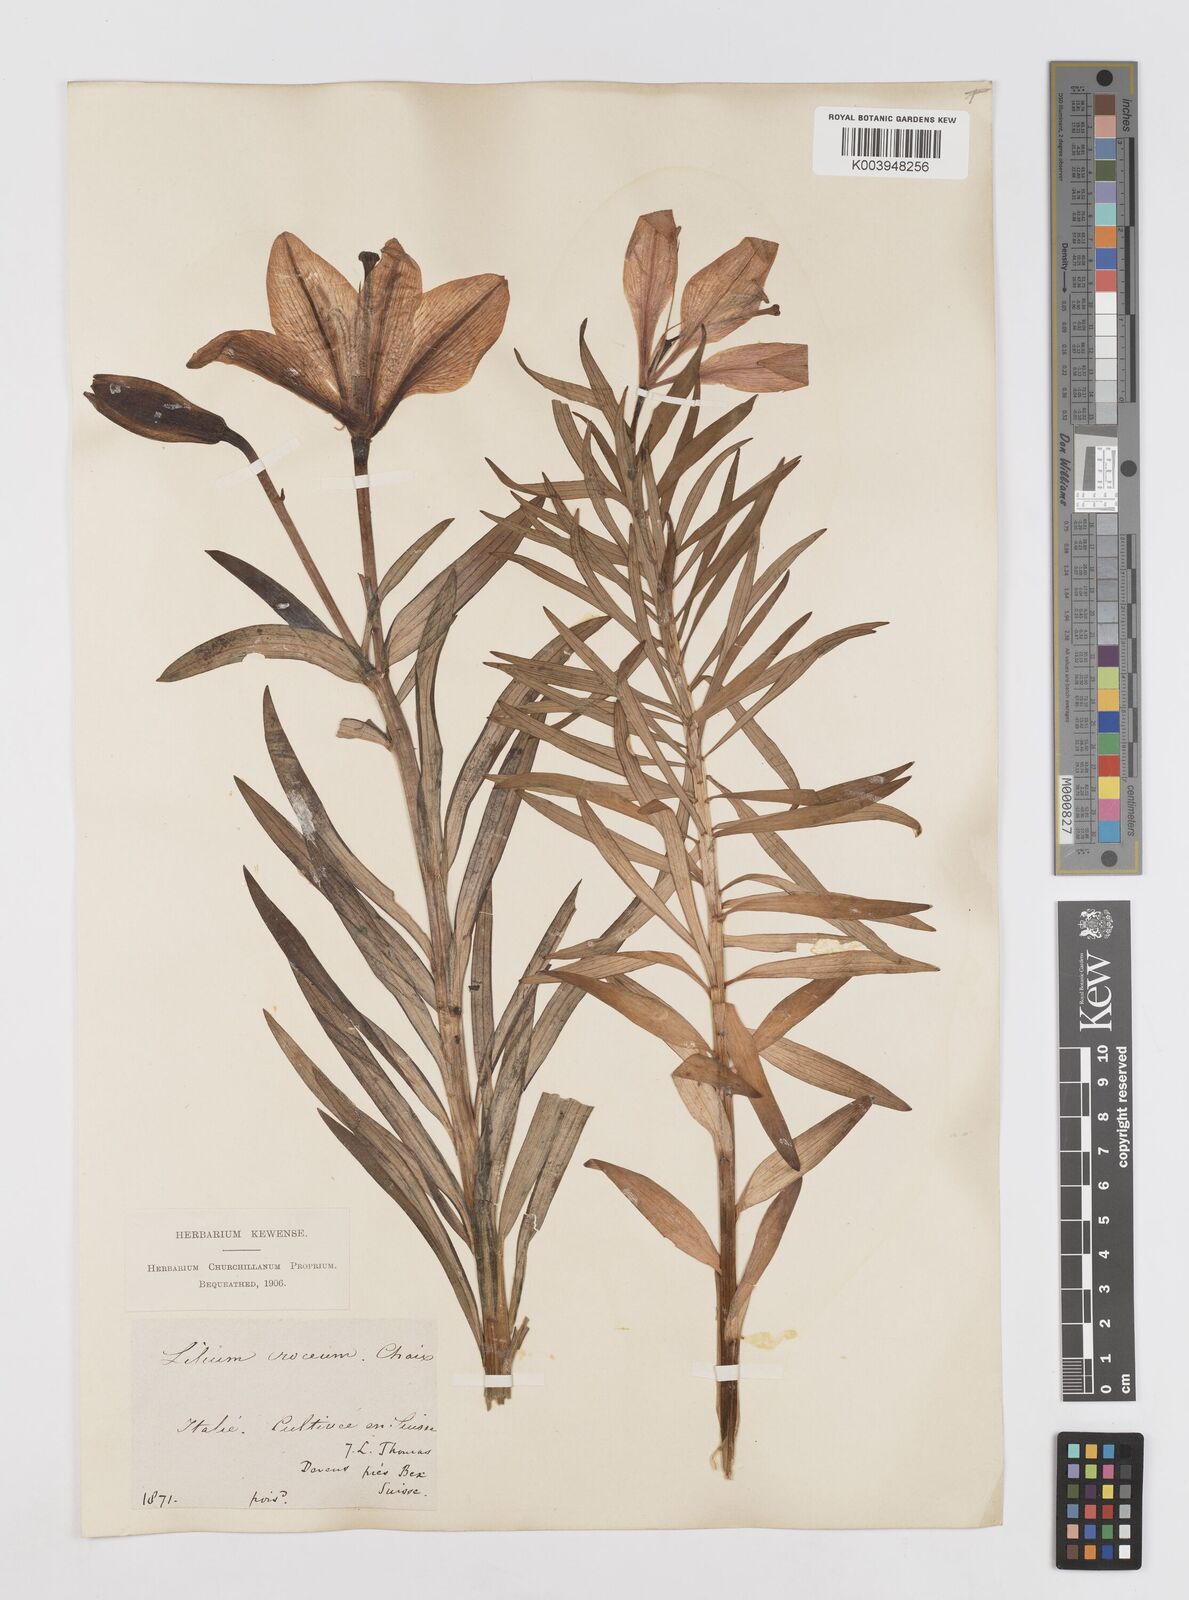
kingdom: Plantae
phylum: Tracheophyta
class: Liliopsida
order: Liliales
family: Liliaceae
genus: Lilium
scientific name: Lilium bulbiferum
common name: Orange lily
